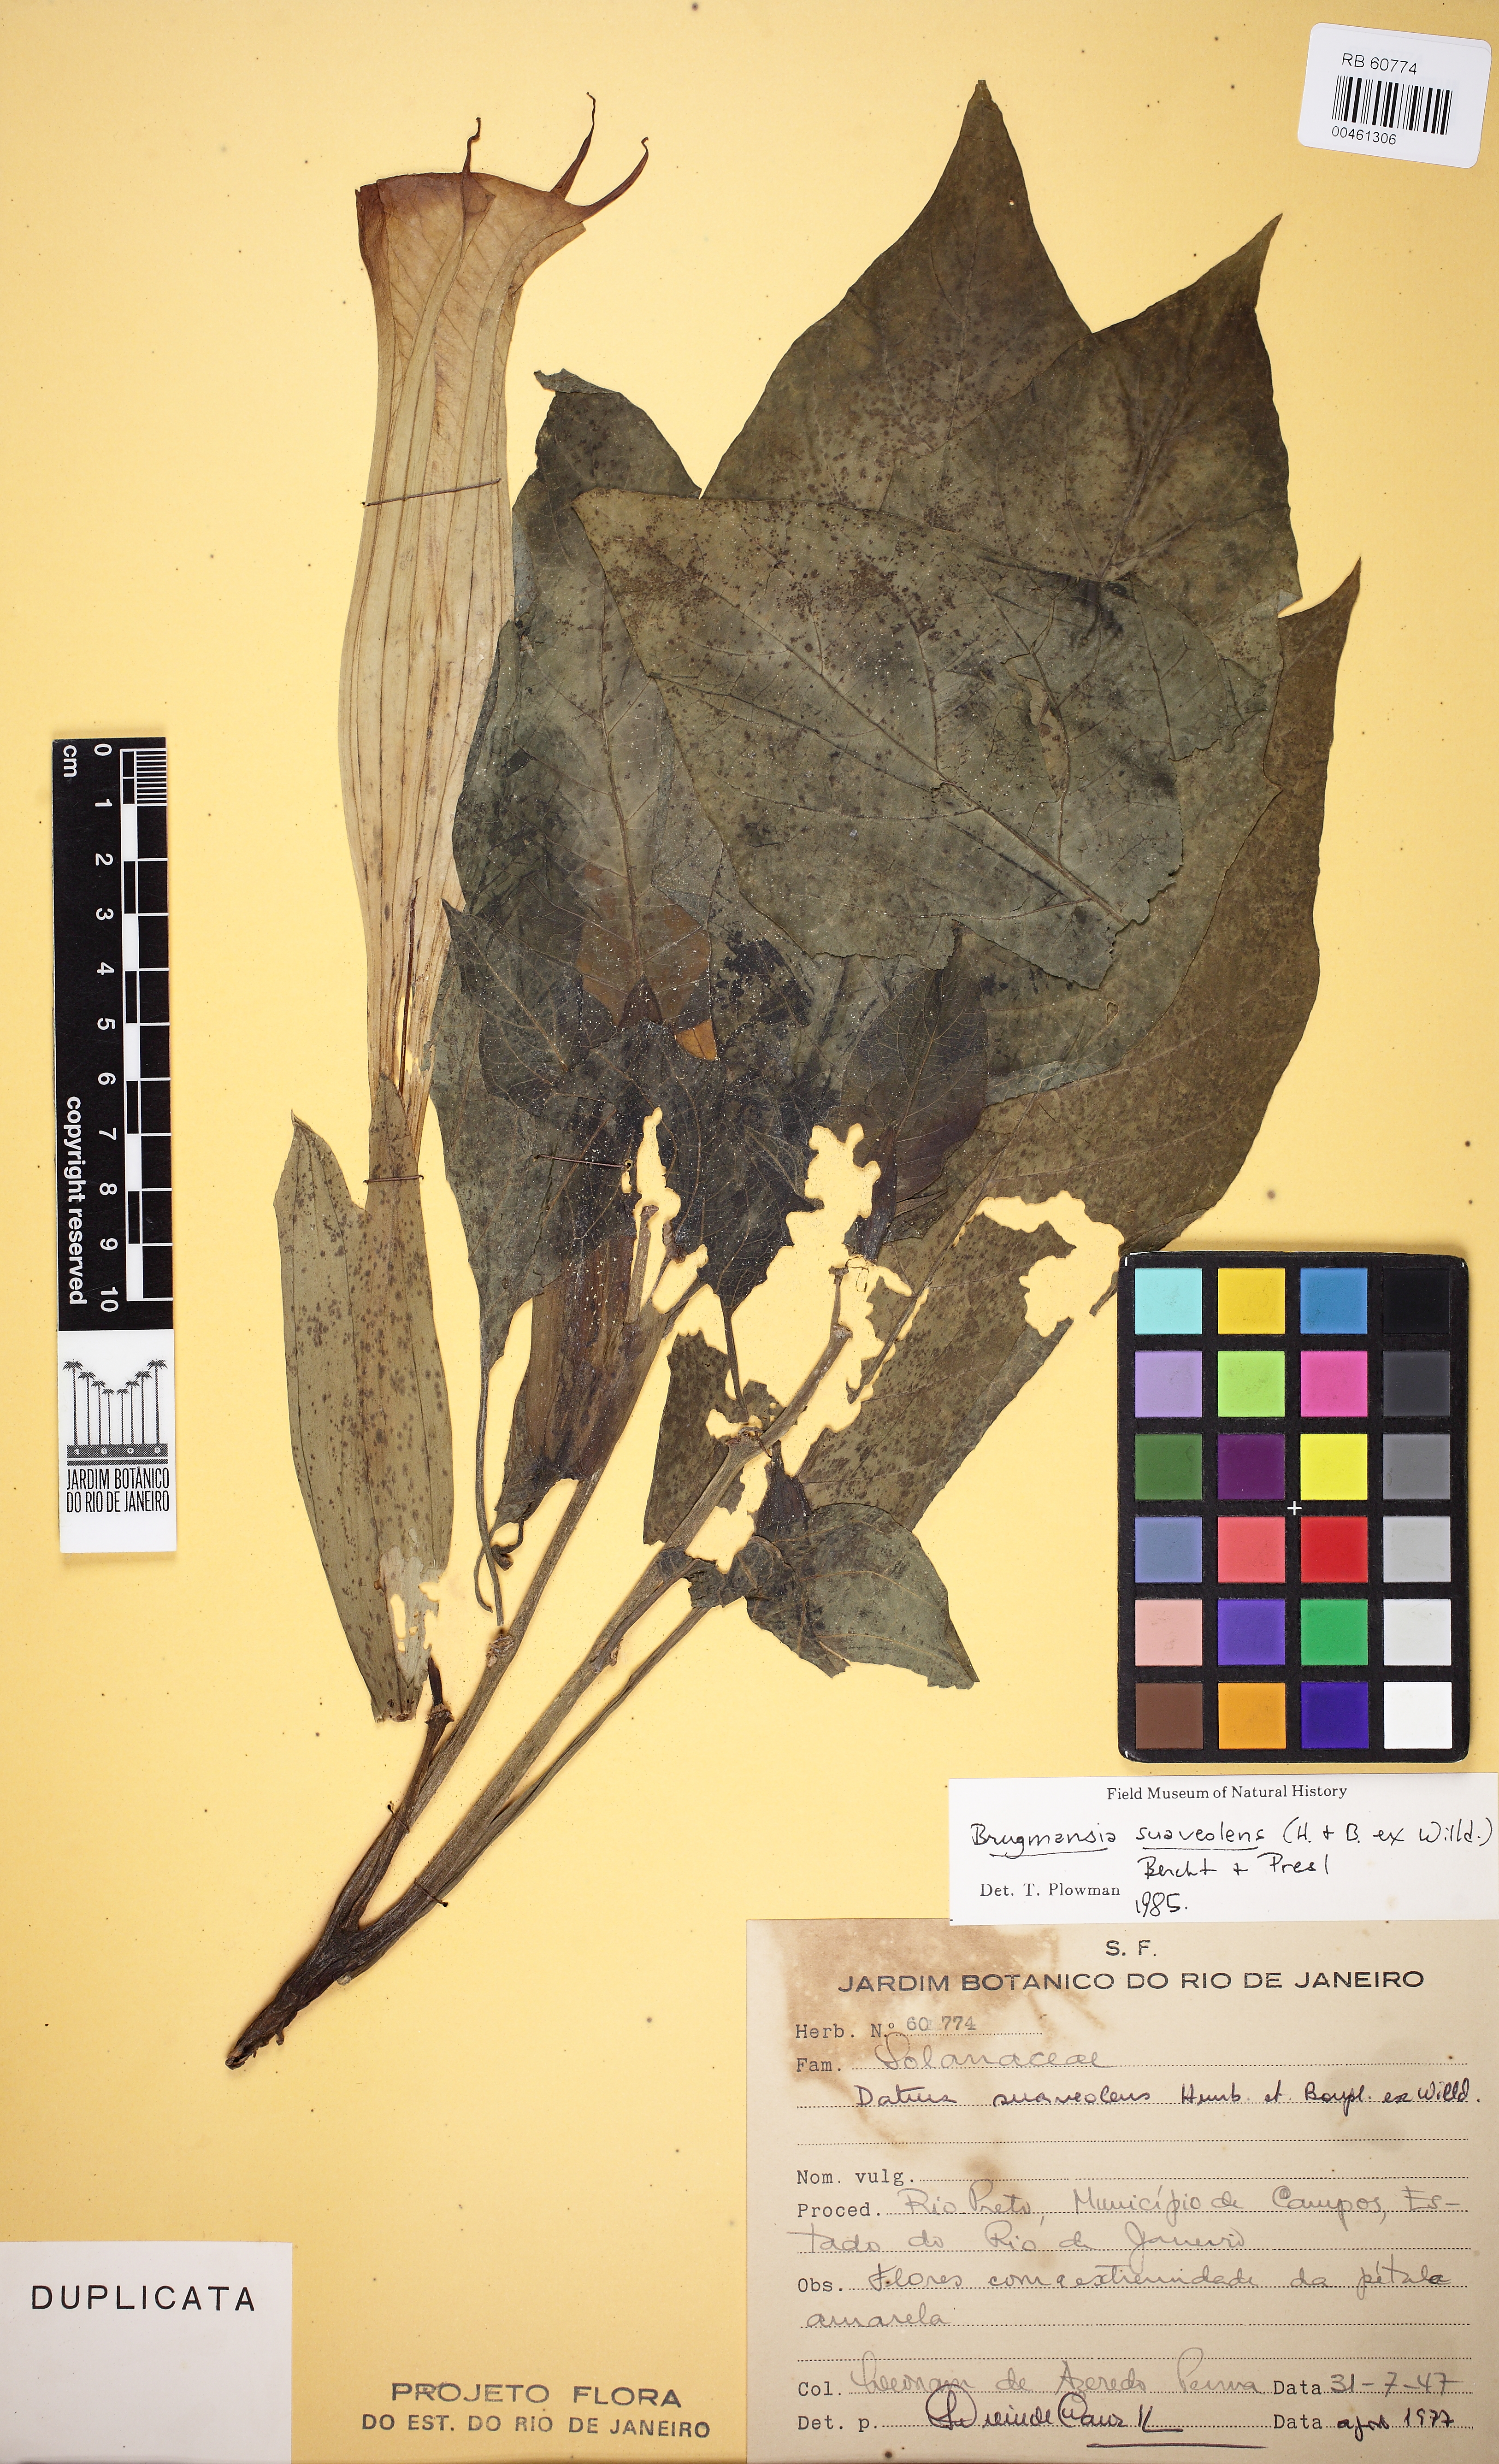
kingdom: Plantae
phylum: Tracheophyta
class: Magnoliopsida
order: Solanales
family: Solanaceae
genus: Brugmansia
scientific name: Brugmansia suaveolens
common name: Angel's tears
